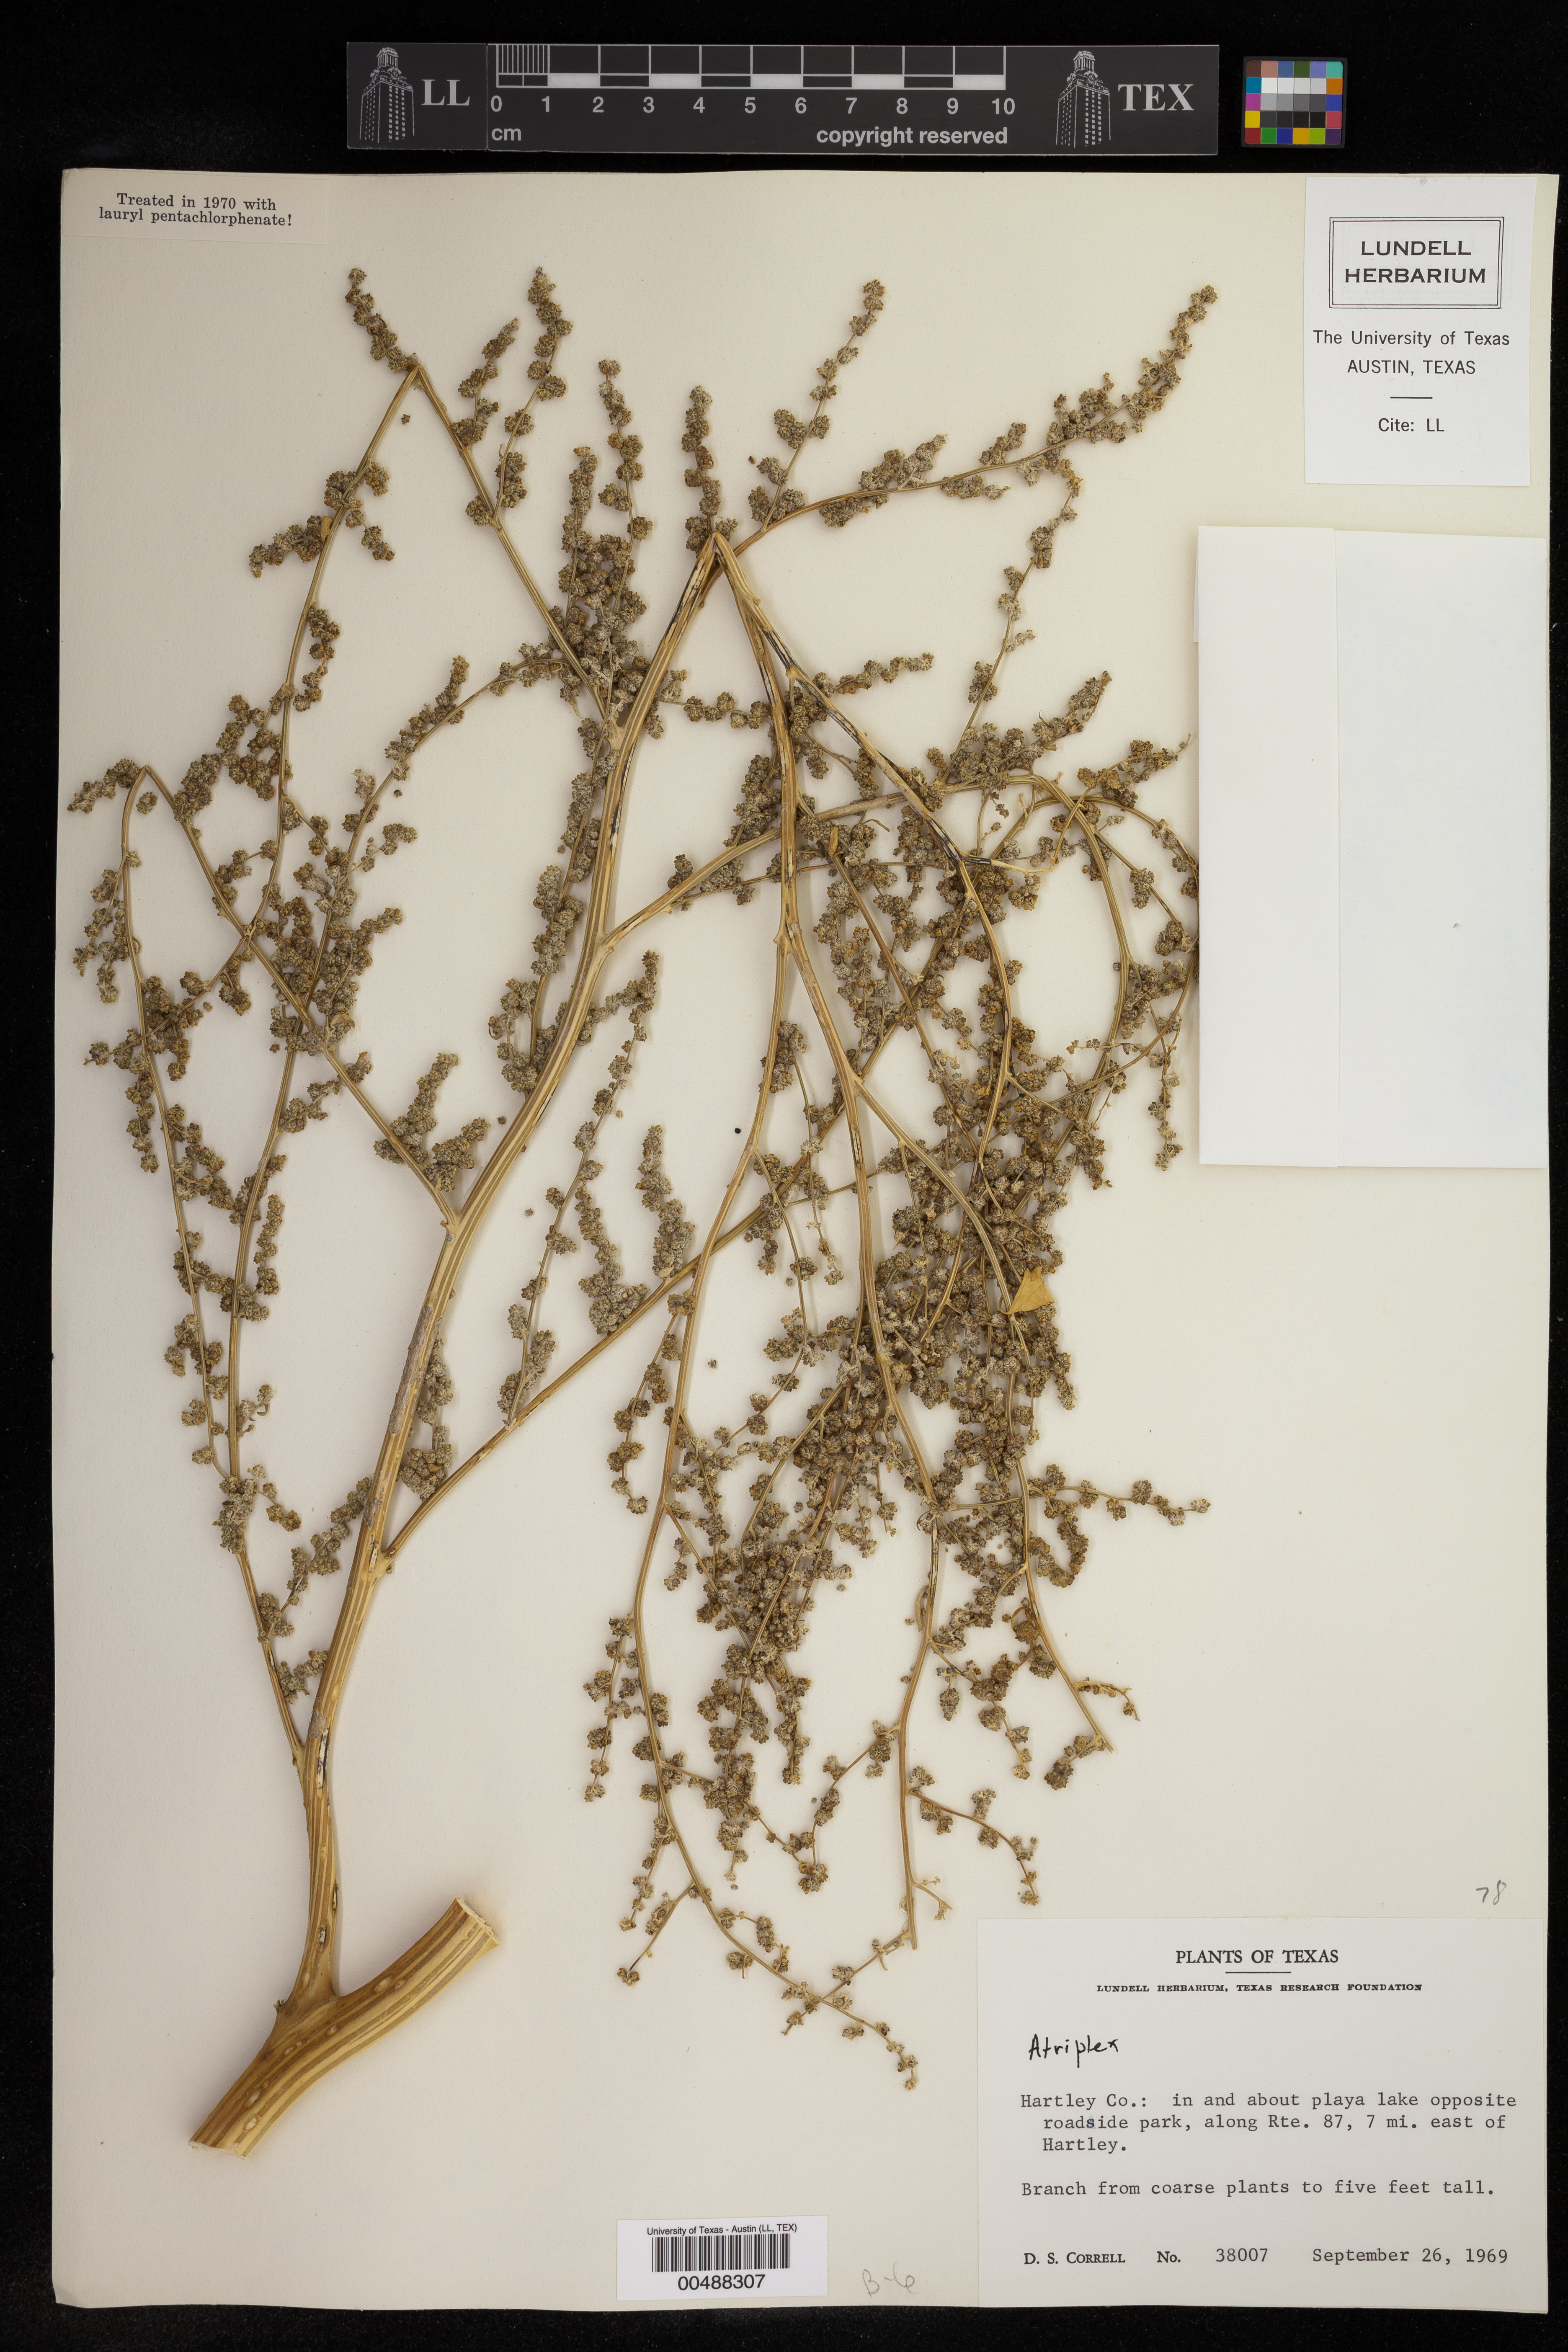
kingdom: Plantae
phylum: Tracheophyta
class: Magnoliopsida
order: Caryophyllales
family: Amaranthaceae
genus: Atriplex
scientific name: Atriplex
